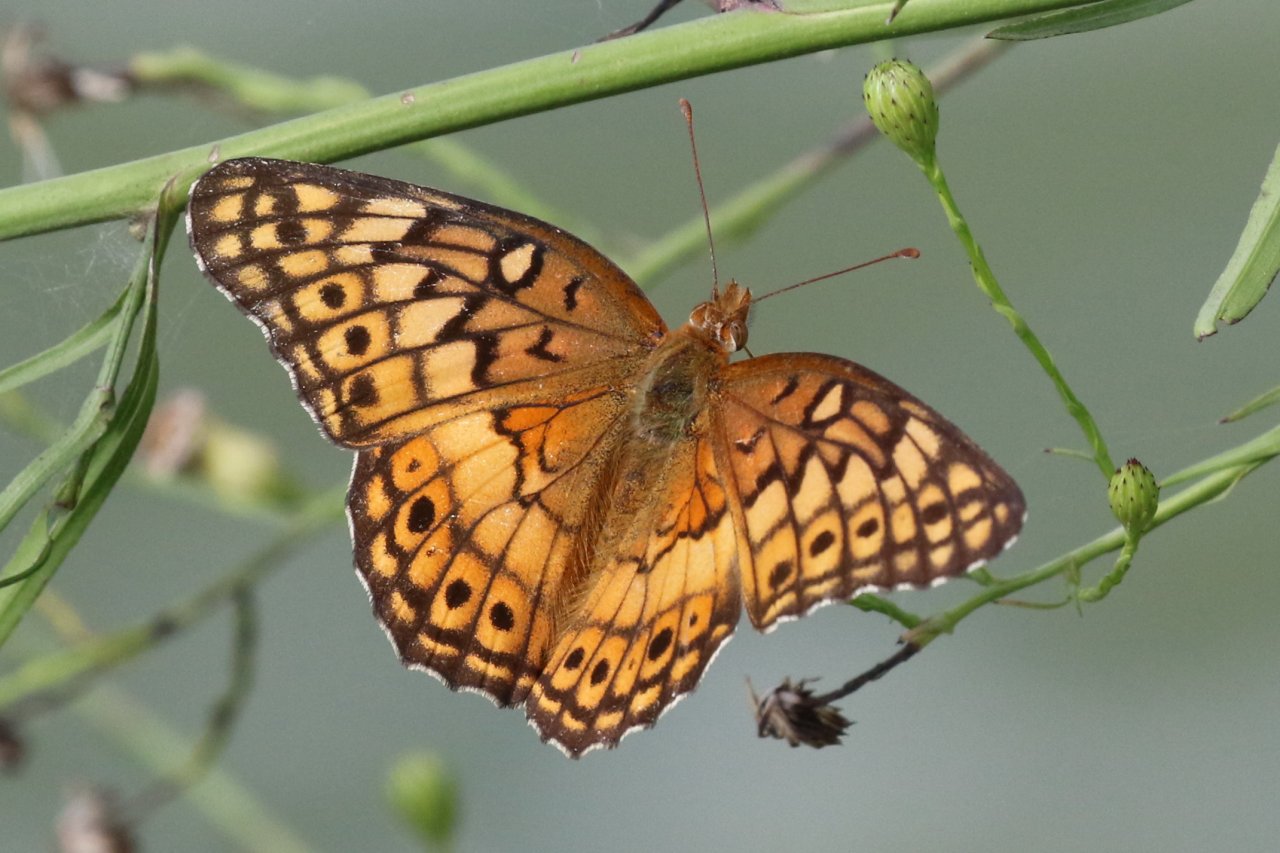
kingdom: Animalia
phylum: Arthropoda
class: Insecta
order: Lepidoptera
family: Nymphalidae
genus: Euptoieta
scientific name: Euptoieta claudia
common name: Variegated Fritillary
